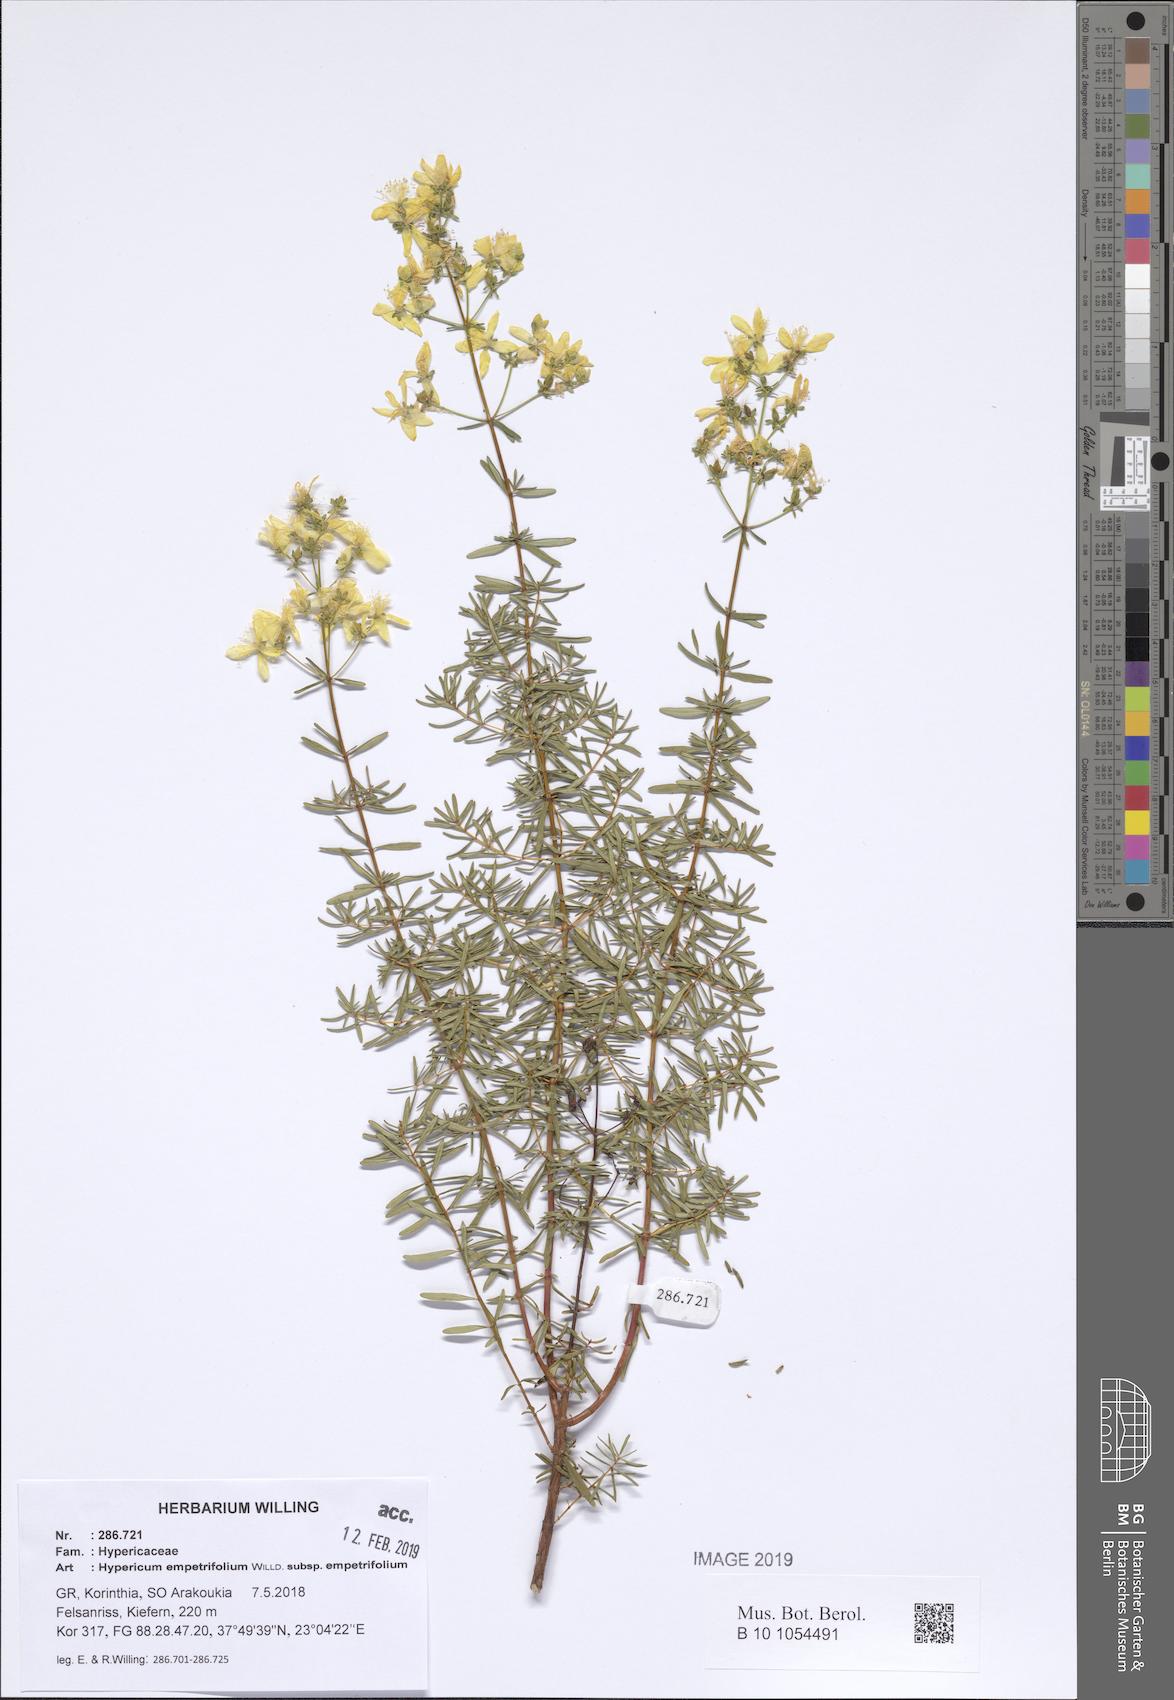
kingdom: Plantae
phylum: Tracheophyta
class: Magnoliopsida
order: Malpighiales
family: Hypericaceae
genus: Hypericum
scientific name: Hypericum empetrifolium
